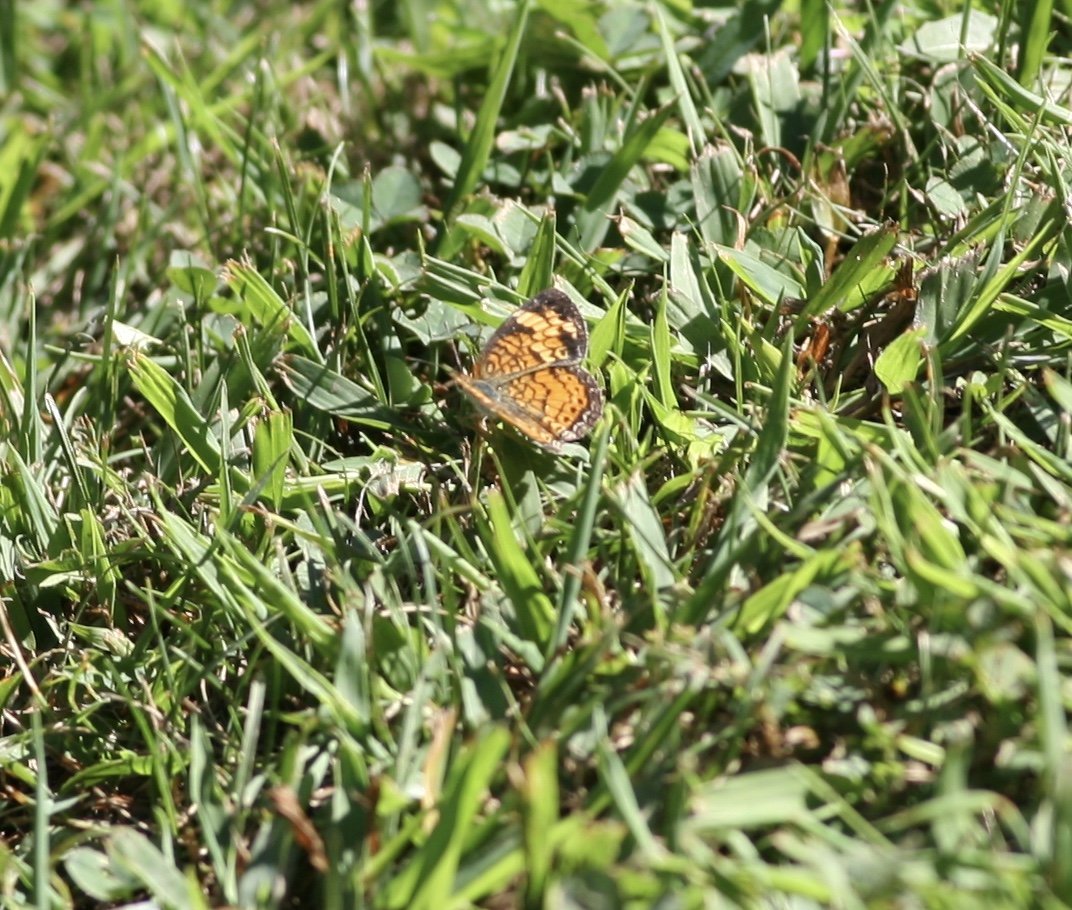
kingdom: Animalia
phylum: Arthropoda
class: Insecta
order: Lepidoptera
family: Nymphalidae
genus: Phyciodes
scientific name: Phyciodes tharos
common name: Pearl Crescent
